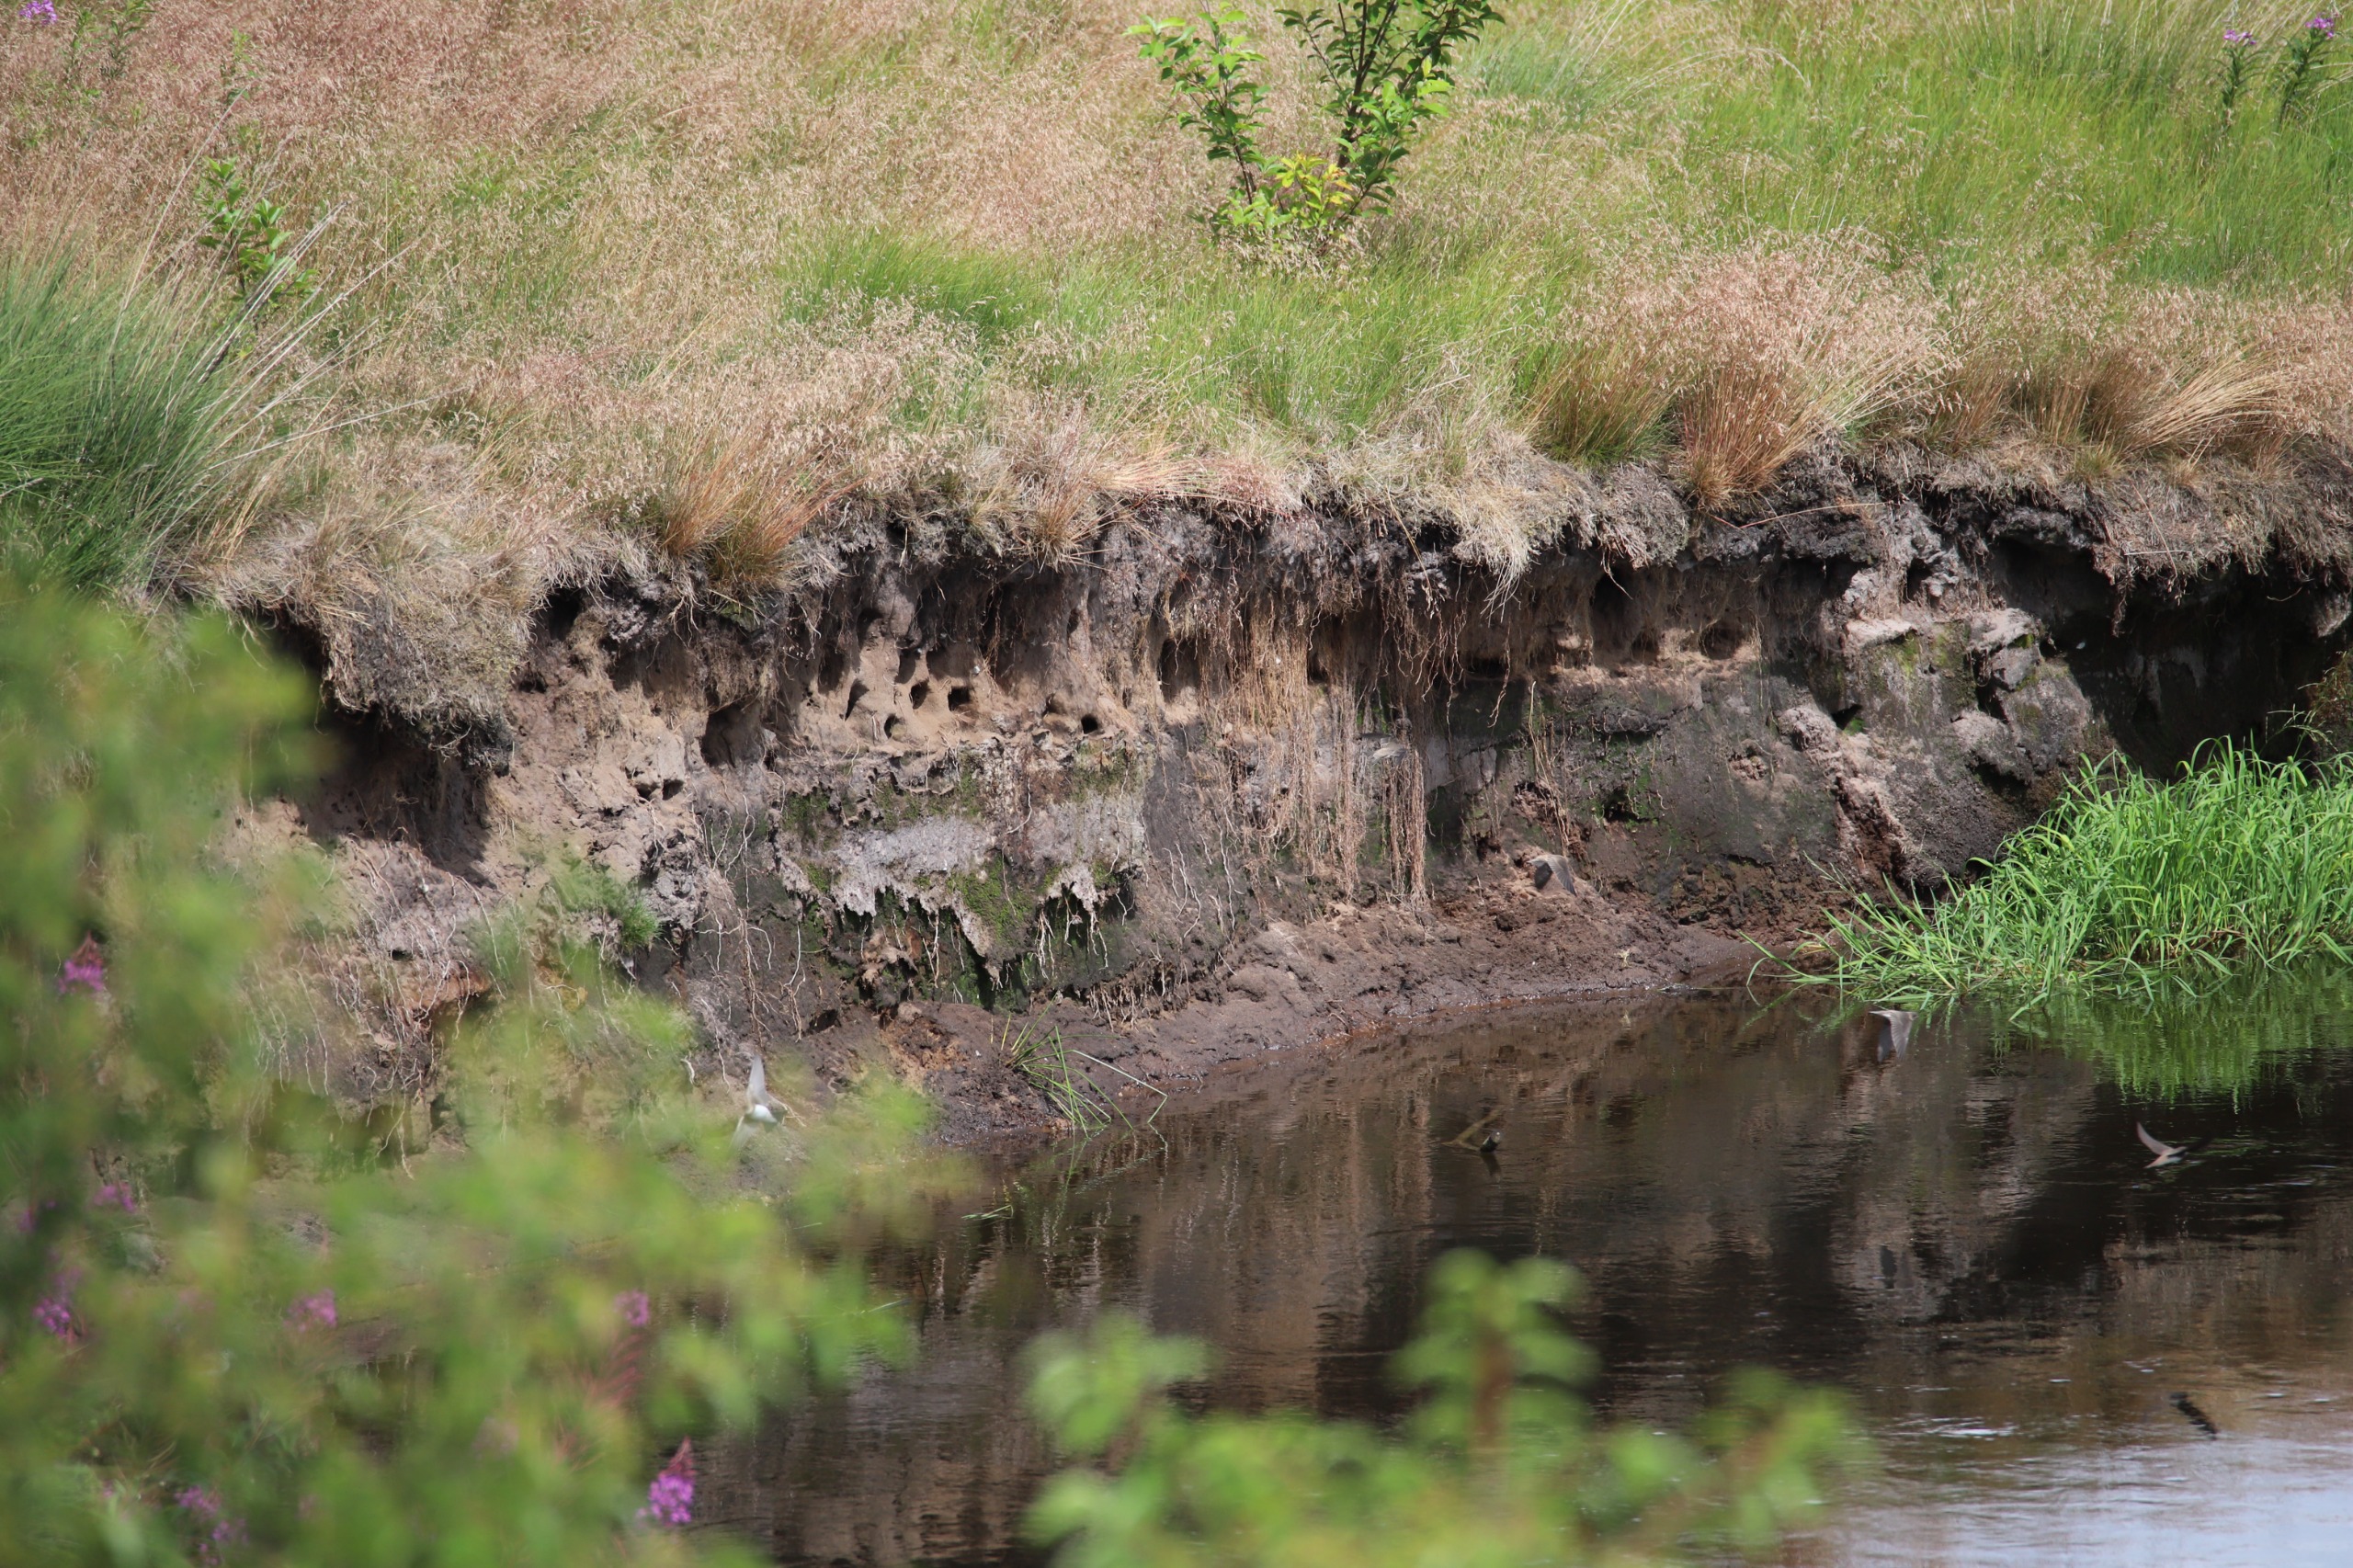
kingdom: Animalia
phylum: Chordata
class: Aves
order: Passeriformes
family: Hirundinidae
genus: Riparia
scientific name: Riparia riparia
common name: Digesvale
